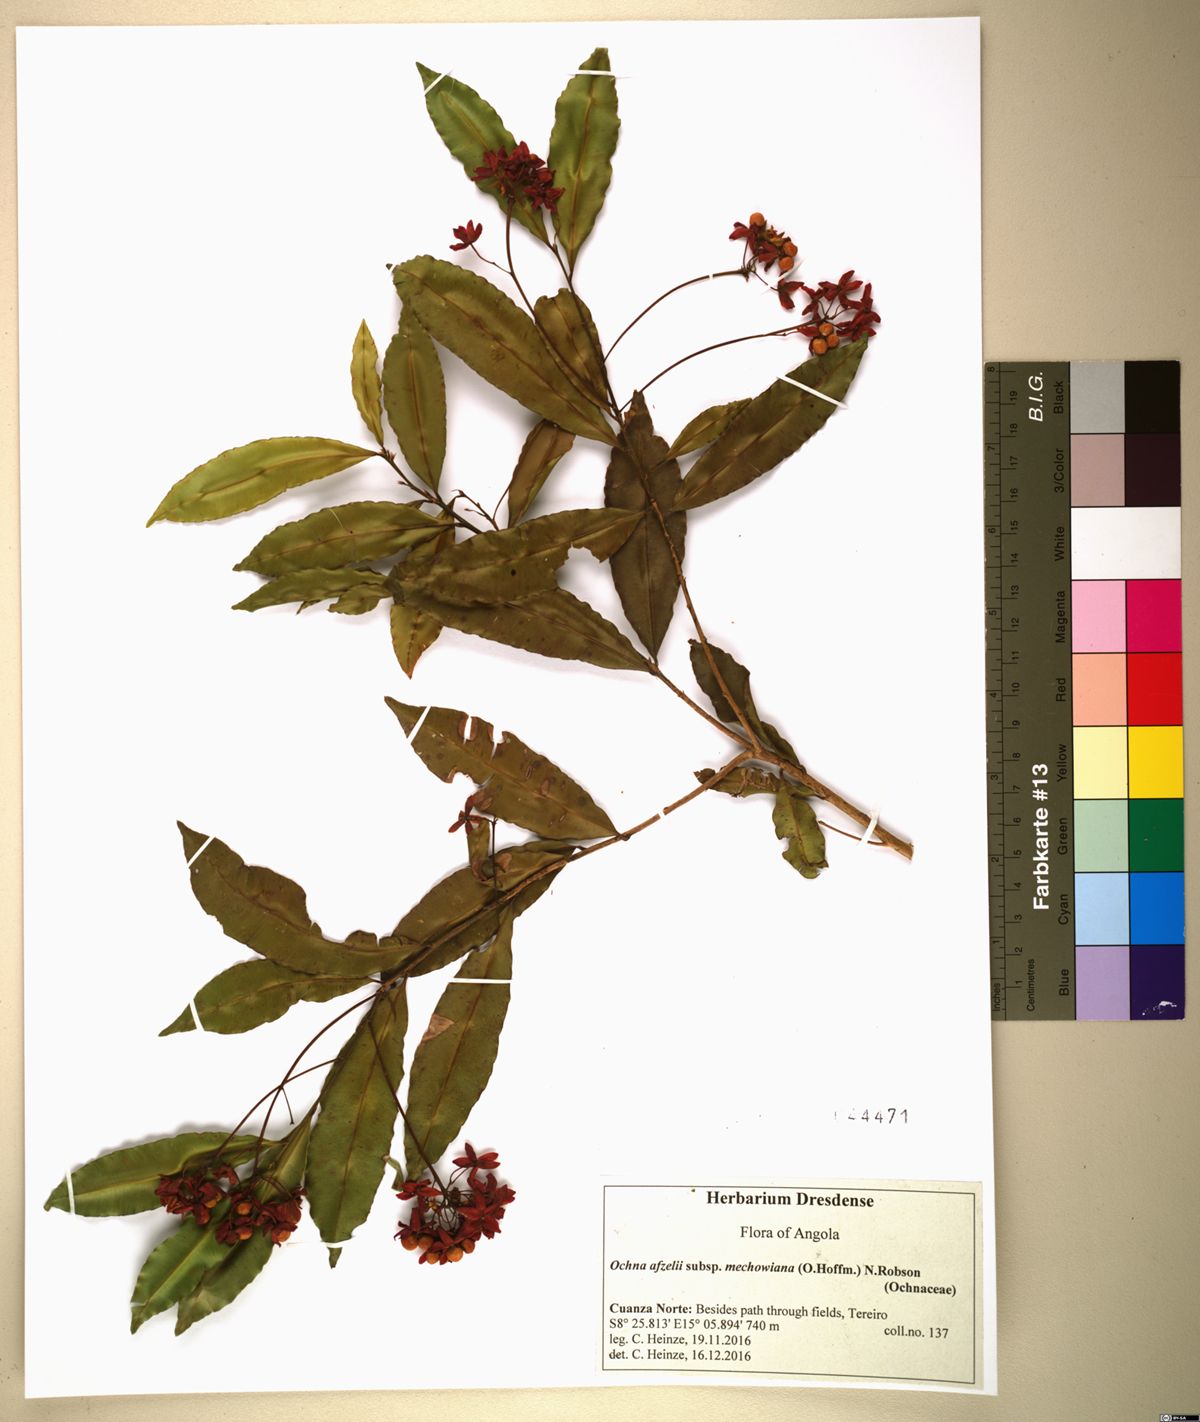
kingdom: Plantae
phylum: Tracheophyta
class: Magnoliopsida
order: Malpighiales
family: Ochnaceae
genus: Rhabdophyllum
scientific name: Rhabdophyllum welwitschii
